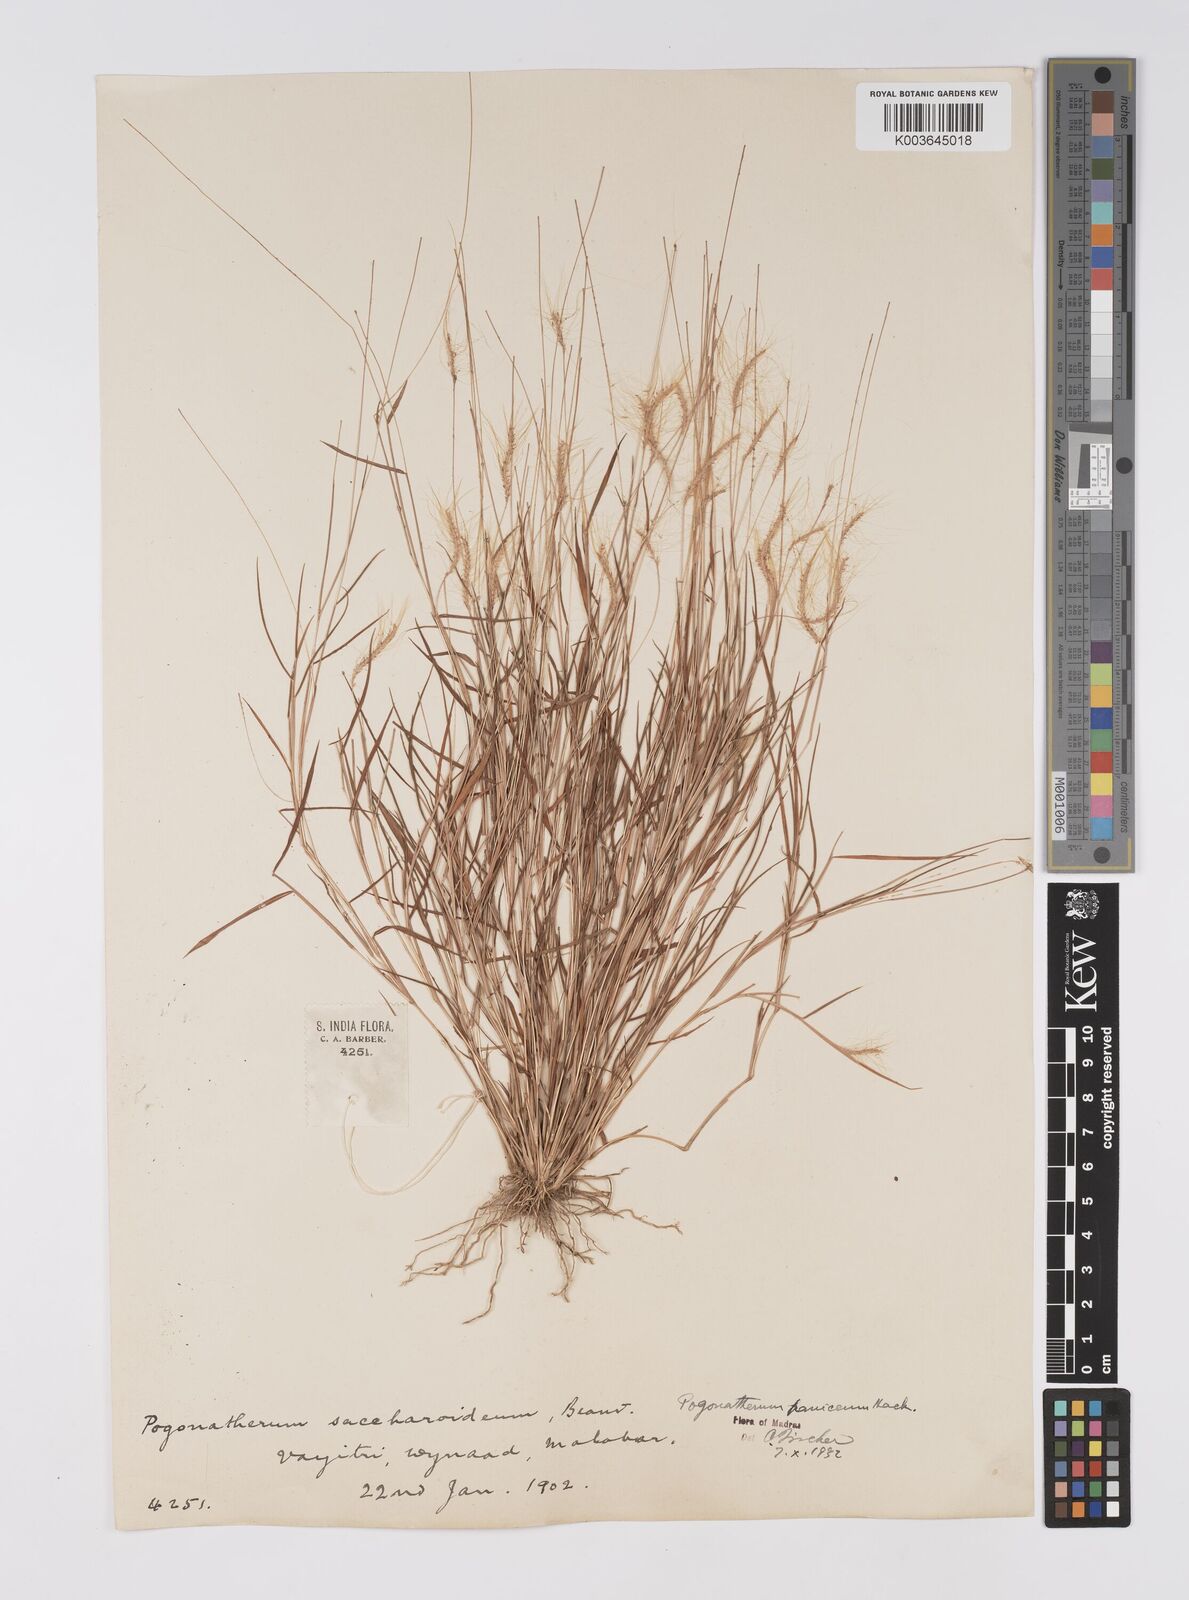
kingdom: Plantae
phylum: Tracheophyta
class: Liliopsida
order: Poales
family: Poaceae
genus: Pogonatherum
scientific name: Pogonatherum crinitum
